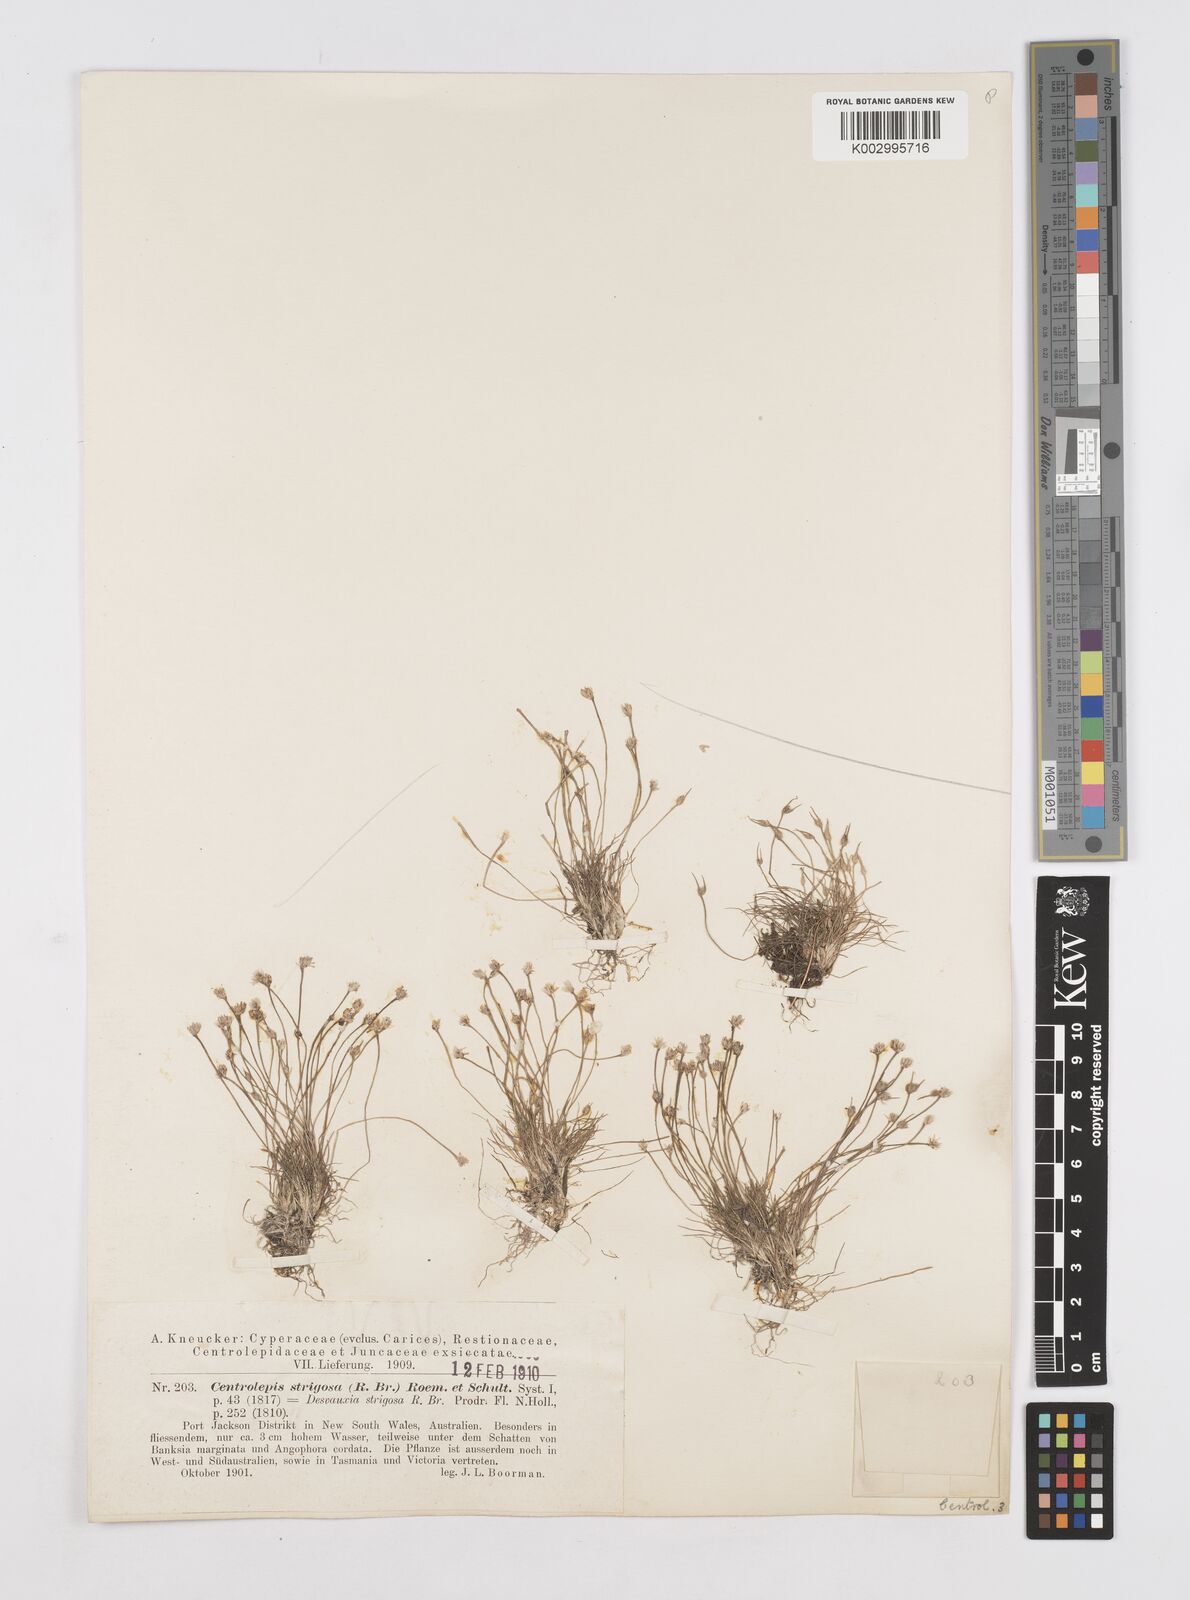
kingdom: Plantae
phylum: Tracheophyta
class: Liliopsida
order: Poales
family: Restionaceae
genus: Centrolepis
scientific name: Centrolepis strigosa
